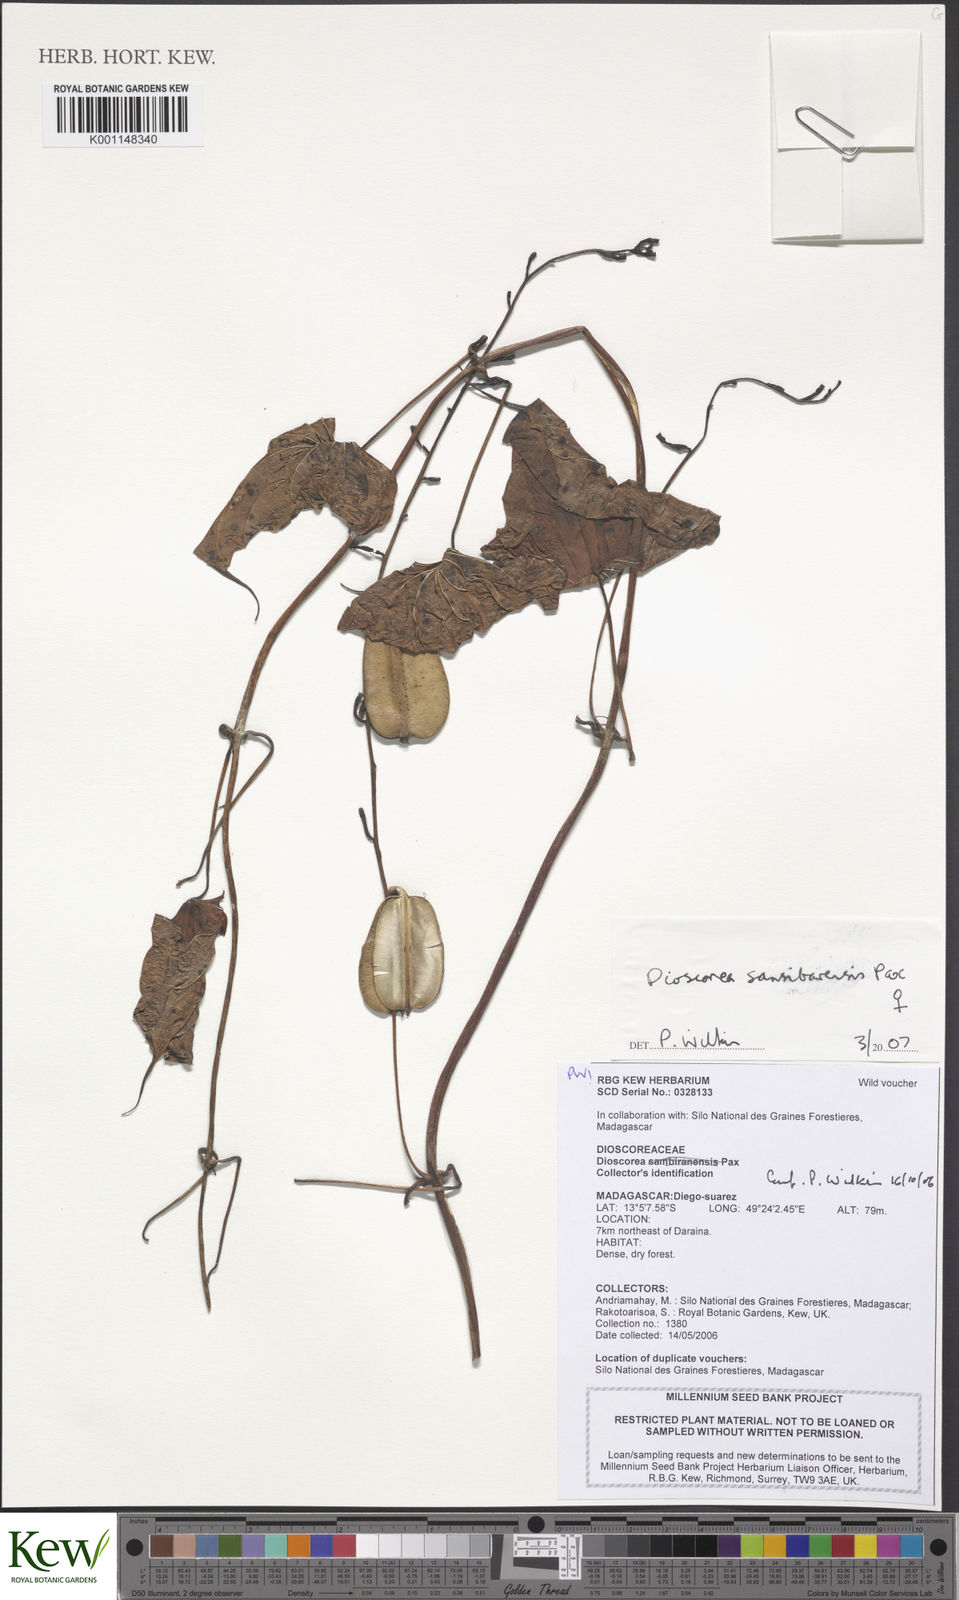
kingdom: Plantae
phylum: Tracheophyta
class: Liliopsida
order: Dioscoreales
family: Dioscoreaceae
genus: Dioscorea
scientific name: Dioscorea sansibarensis
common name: Zanzibar yam
